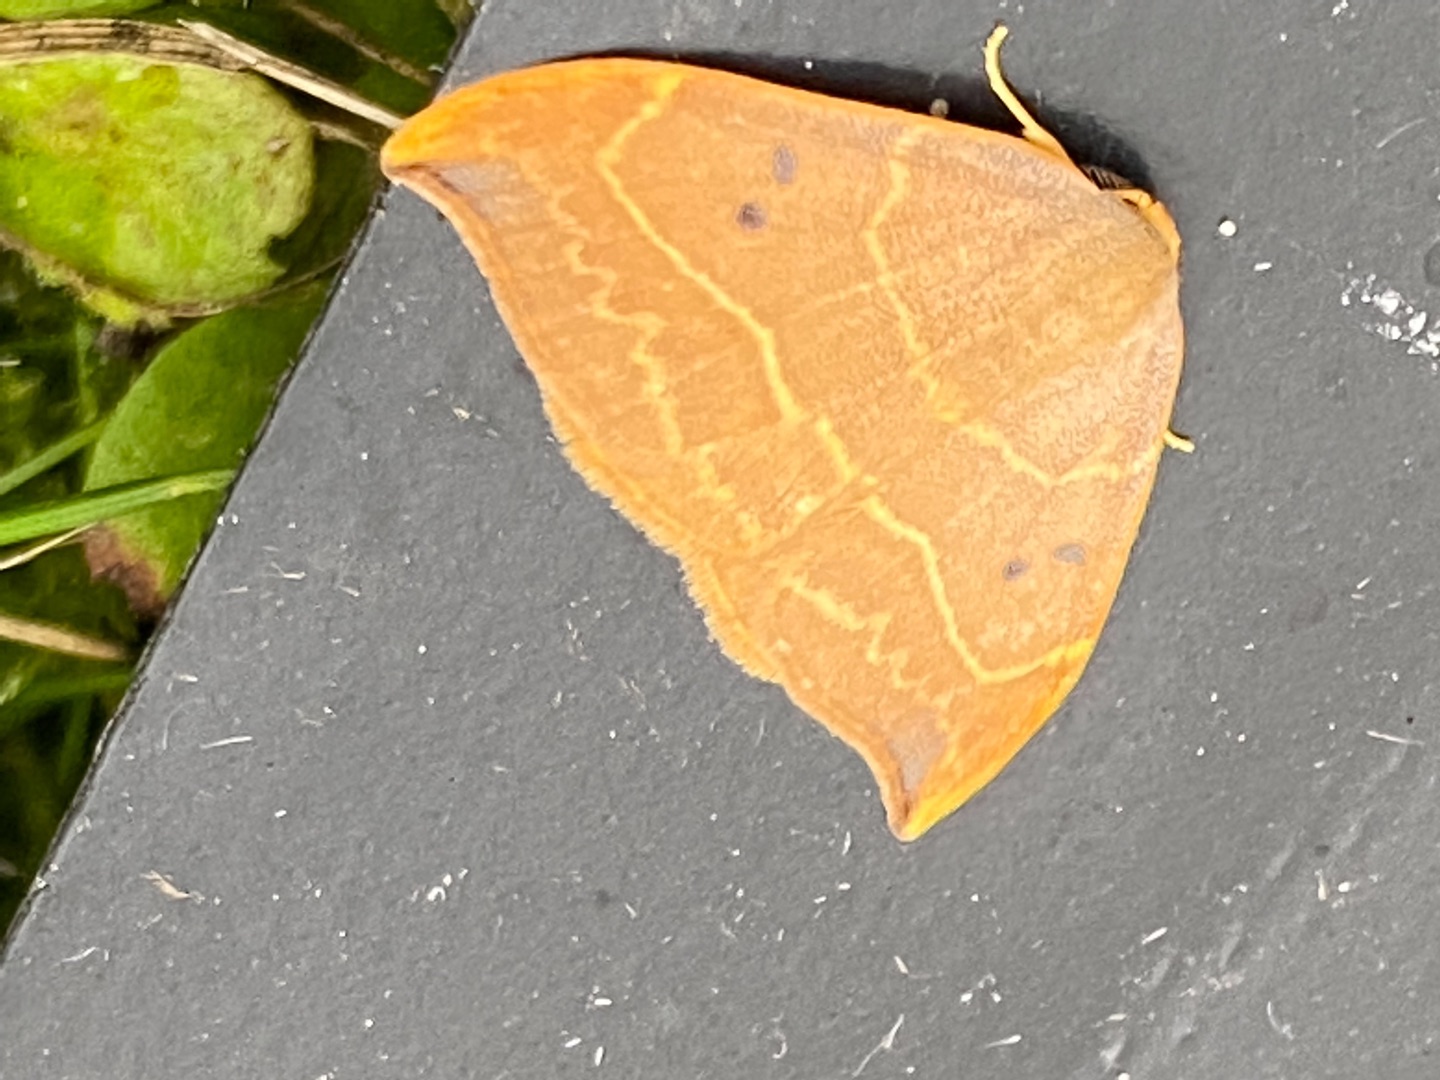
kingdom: Animalia
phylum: Arthropoda
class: Insecta
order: Lepidoptera
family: Drepanidae
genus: Watsonalla
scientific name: Watsonalla binaria
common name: Toplettet seglvinge
